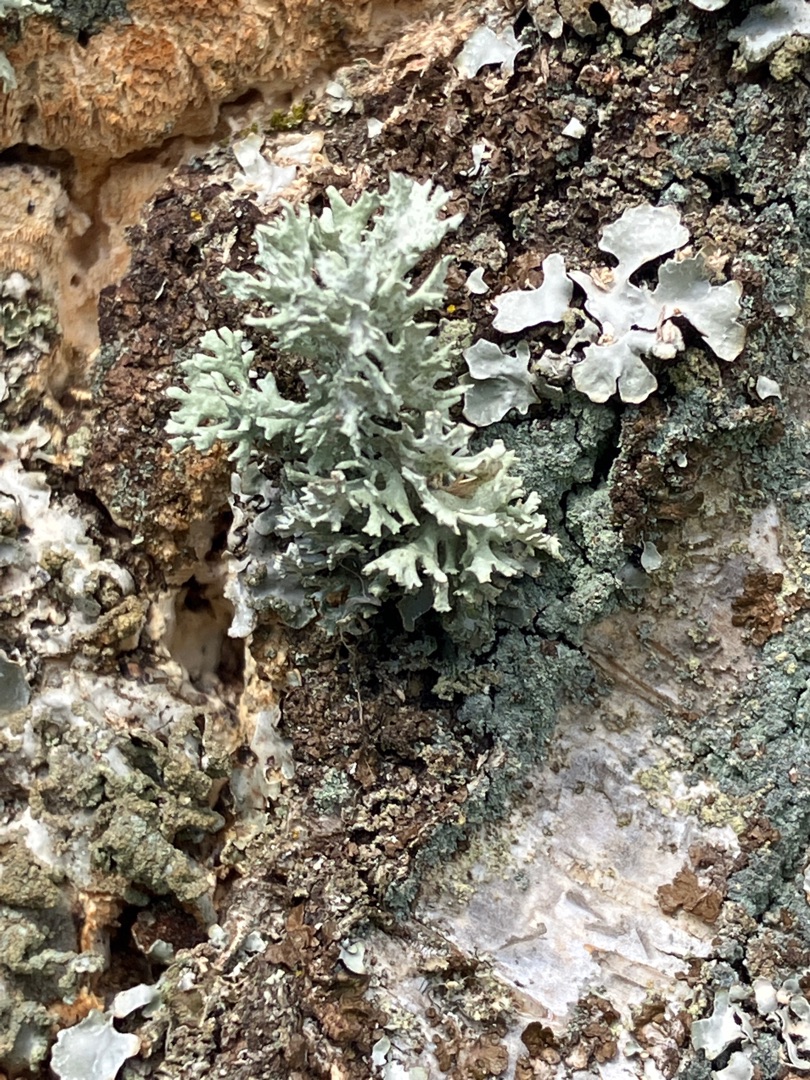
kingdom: Fungi
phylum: Ascomycota
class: Lecanoromycetes
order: Lecanorales
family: Parmeliaceae
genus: Evernia
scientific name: Evernia prunastri
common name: Almindelig slåenlav
